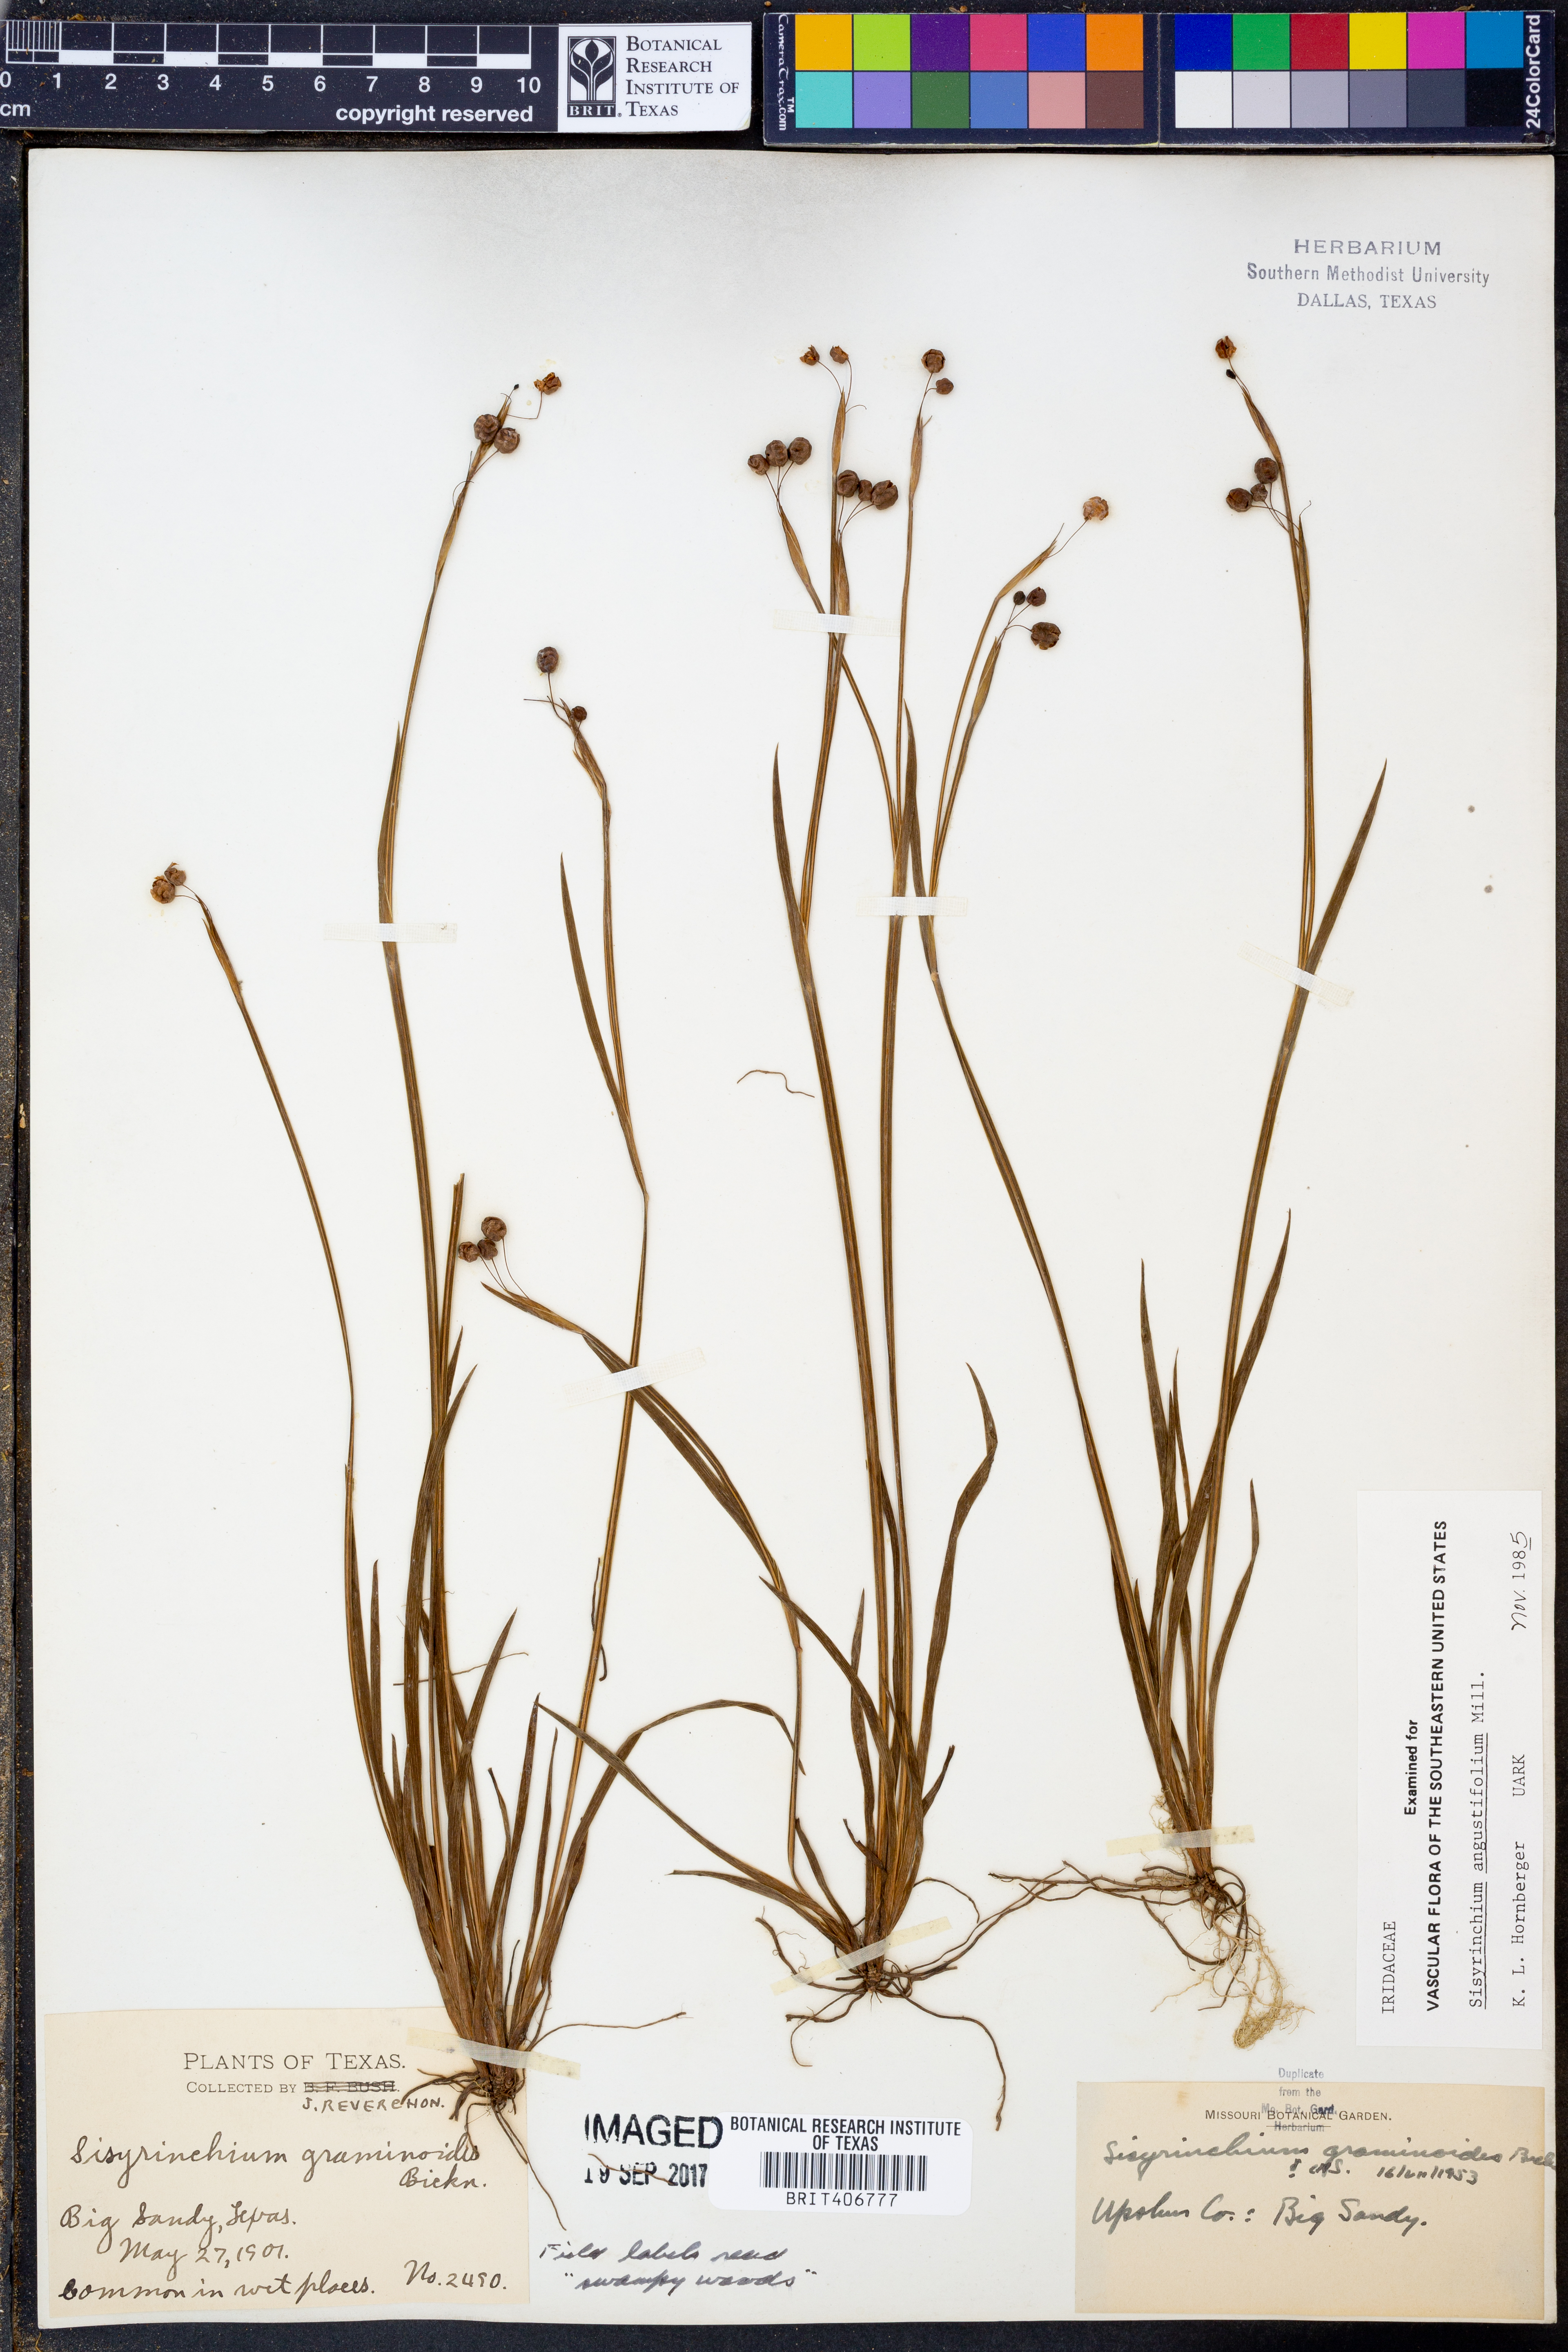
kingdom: Plantae
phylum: Tracheophyta
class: Liliopsida
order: Asparagales
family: Iridaceae
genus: Sisyrinchium
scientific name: Sisyrinchium angustifolium
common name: Narrow-leaf blue-eyed-grass
